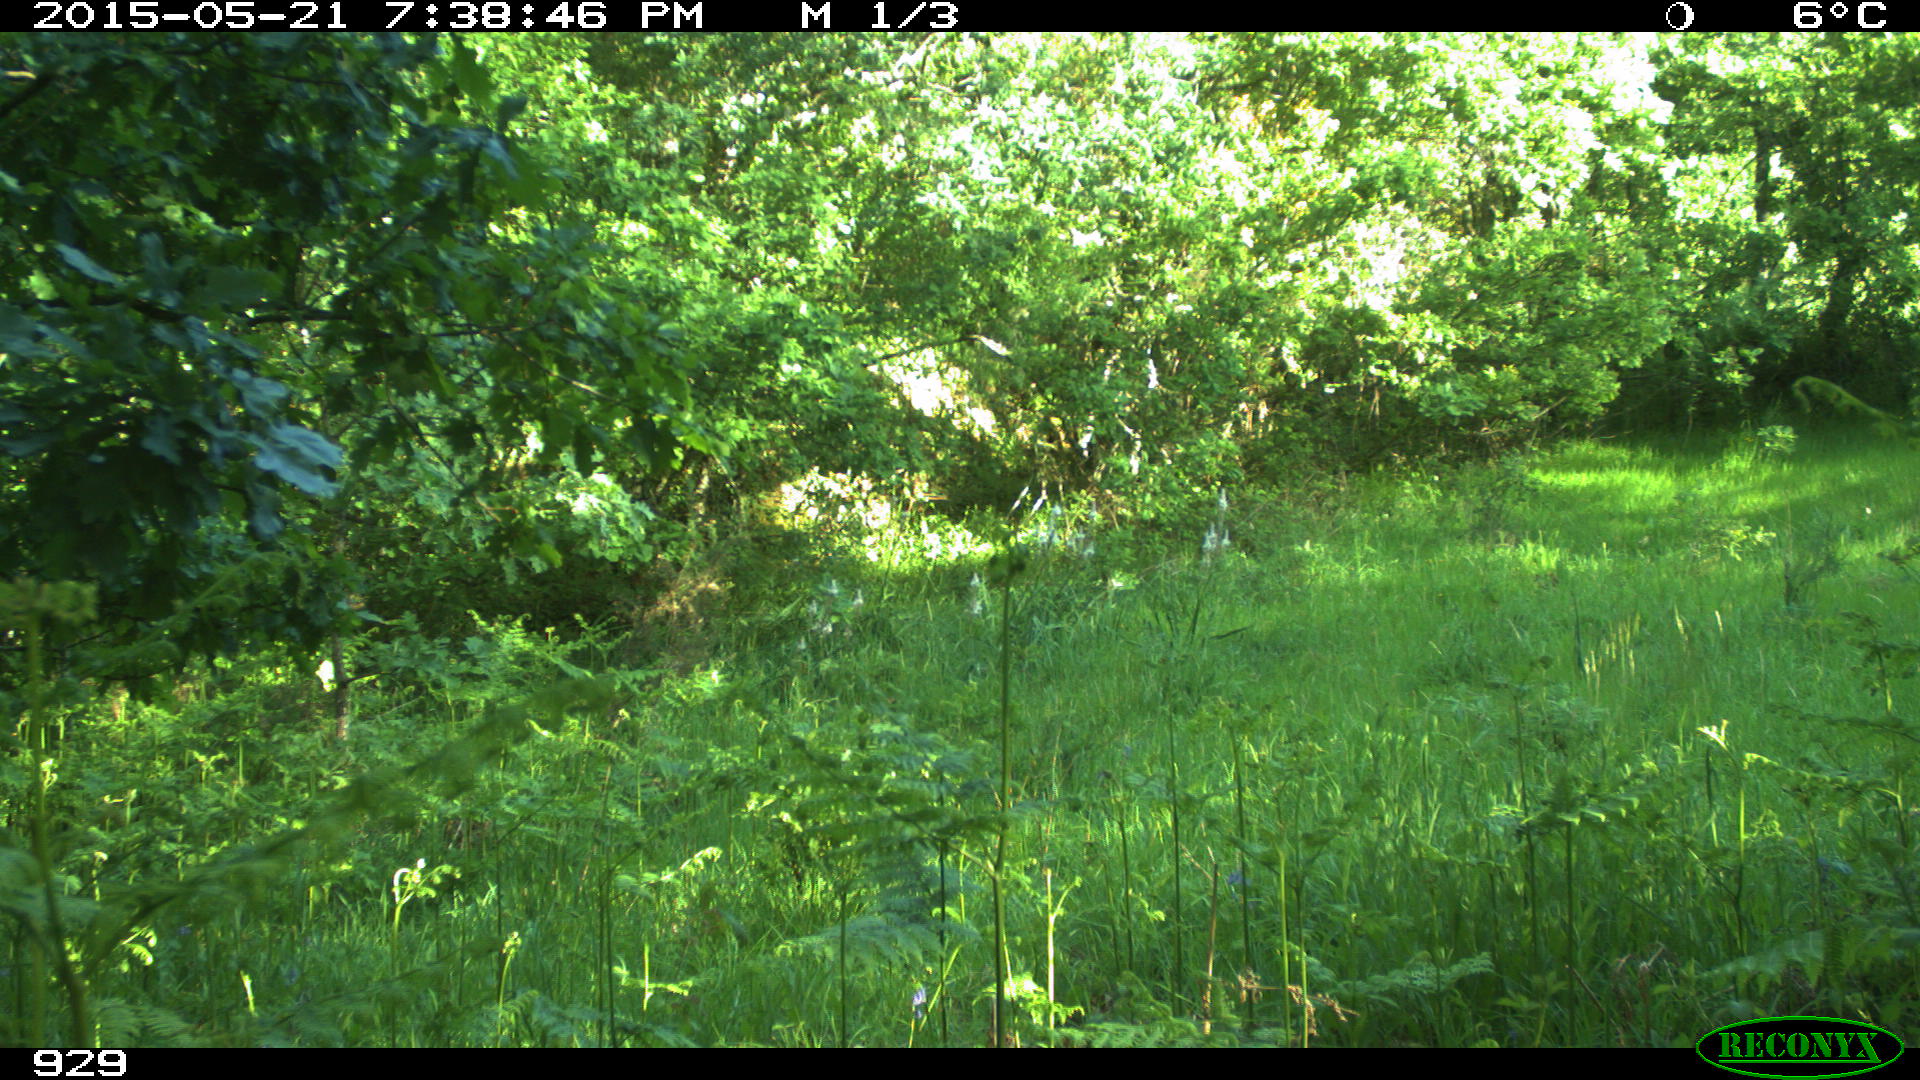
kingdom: Animalia
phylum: Chordata
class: Mammalia
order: Artiodactyla
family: Cervidae
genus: Capreolus
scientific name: Capreolus capreolus
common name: Western roe deer
